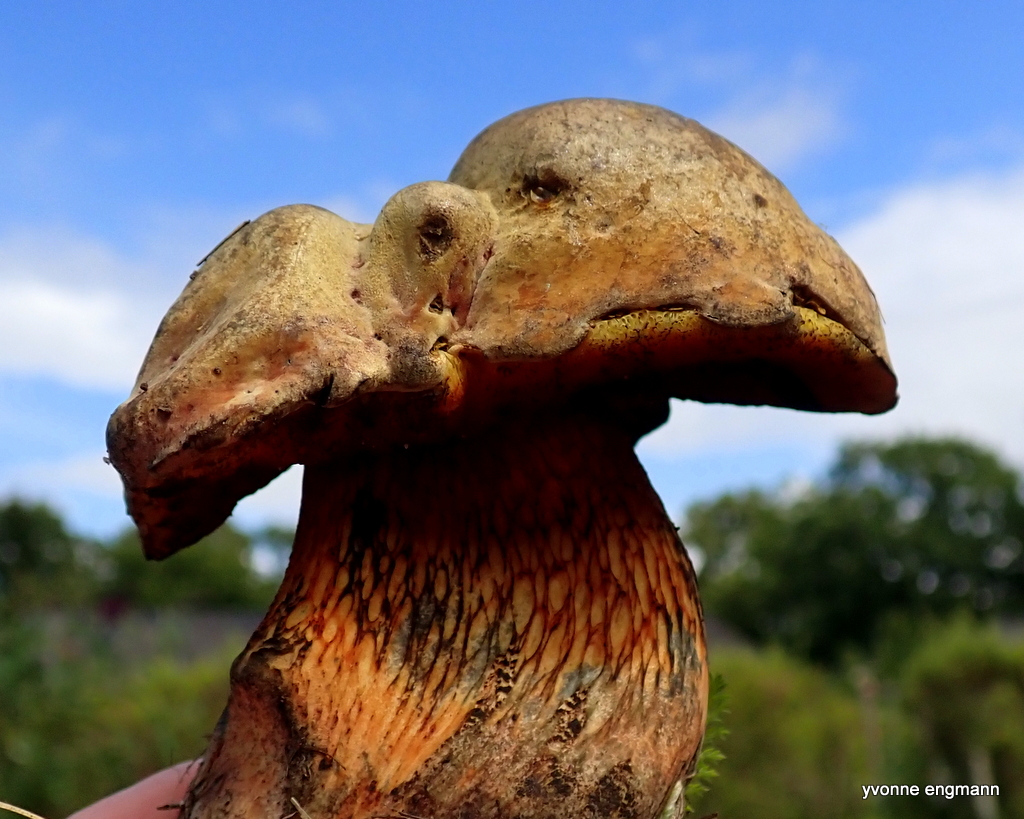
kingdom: Fungi
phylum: Basidiomycota
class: Agaricomycetes
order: Boletales
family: Boletaceae
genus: Suillellus
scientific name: Suillellus luridus
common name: netstokket indigorørhat
